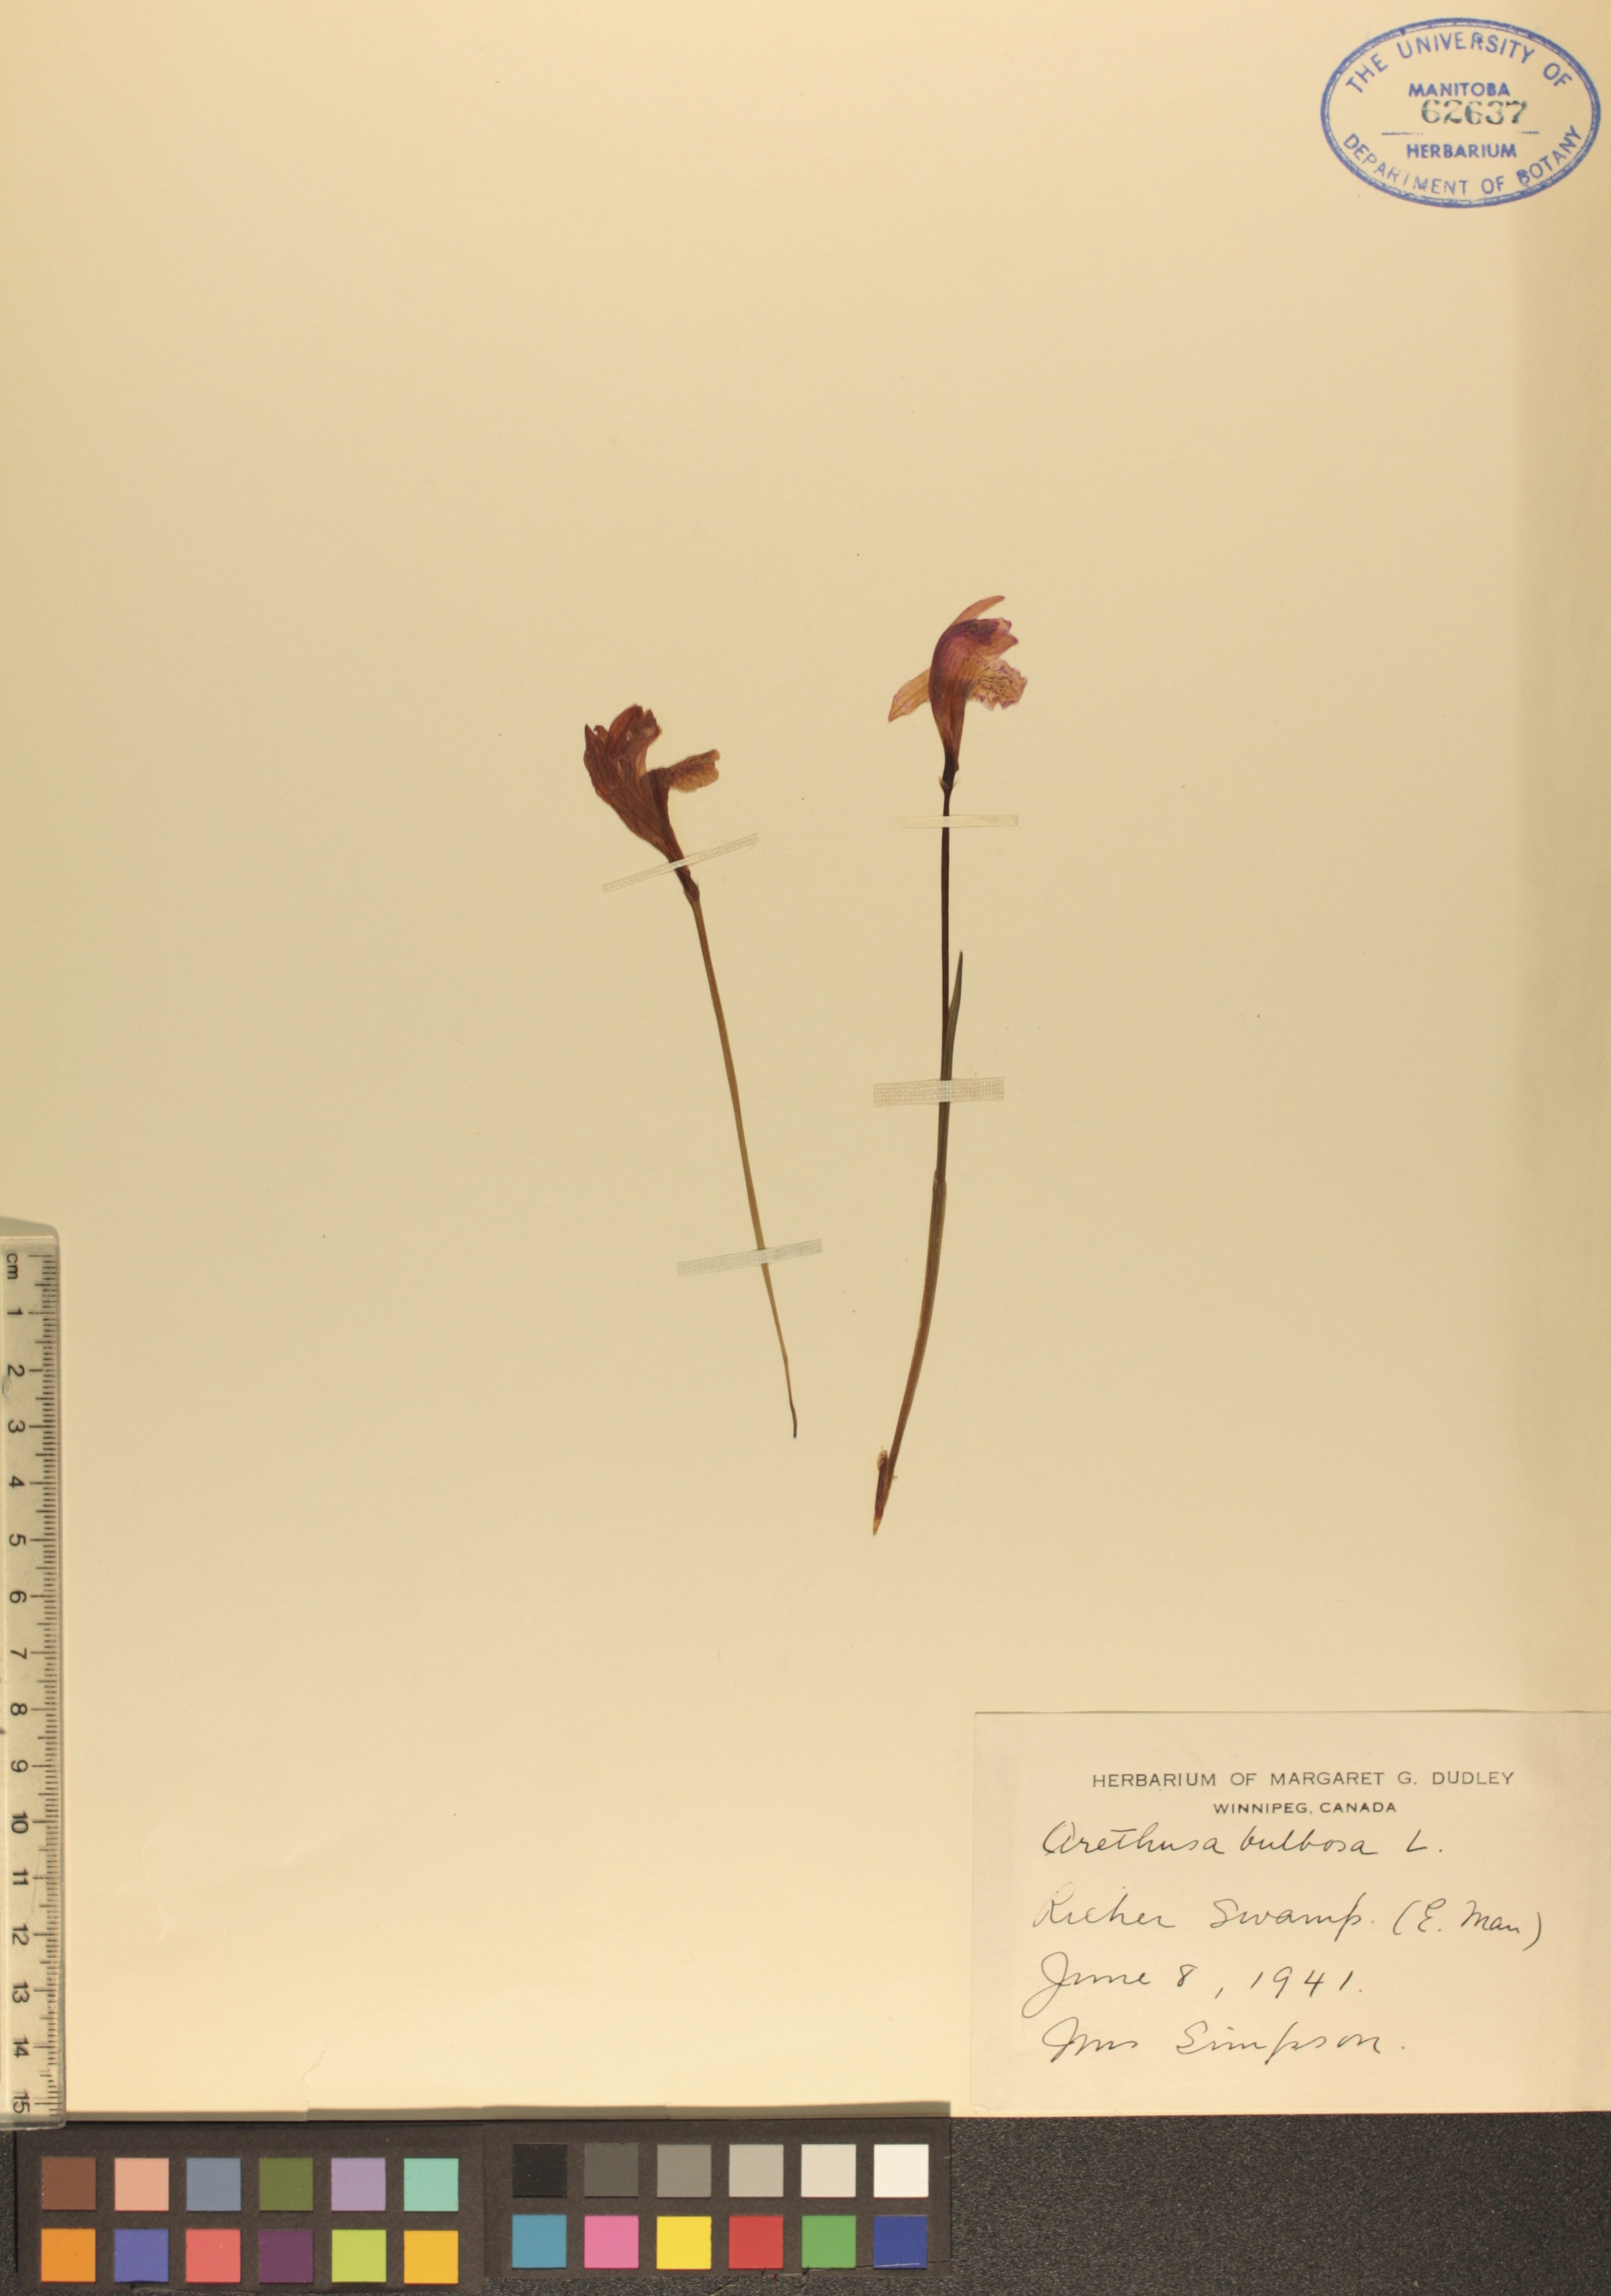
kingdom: Plantae
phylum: Tracheophyta
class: Liliopsida
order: Asparagales
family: Orchidaceae
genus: Arethusa
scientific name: Arethusa bulbosa
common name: Arethusa
